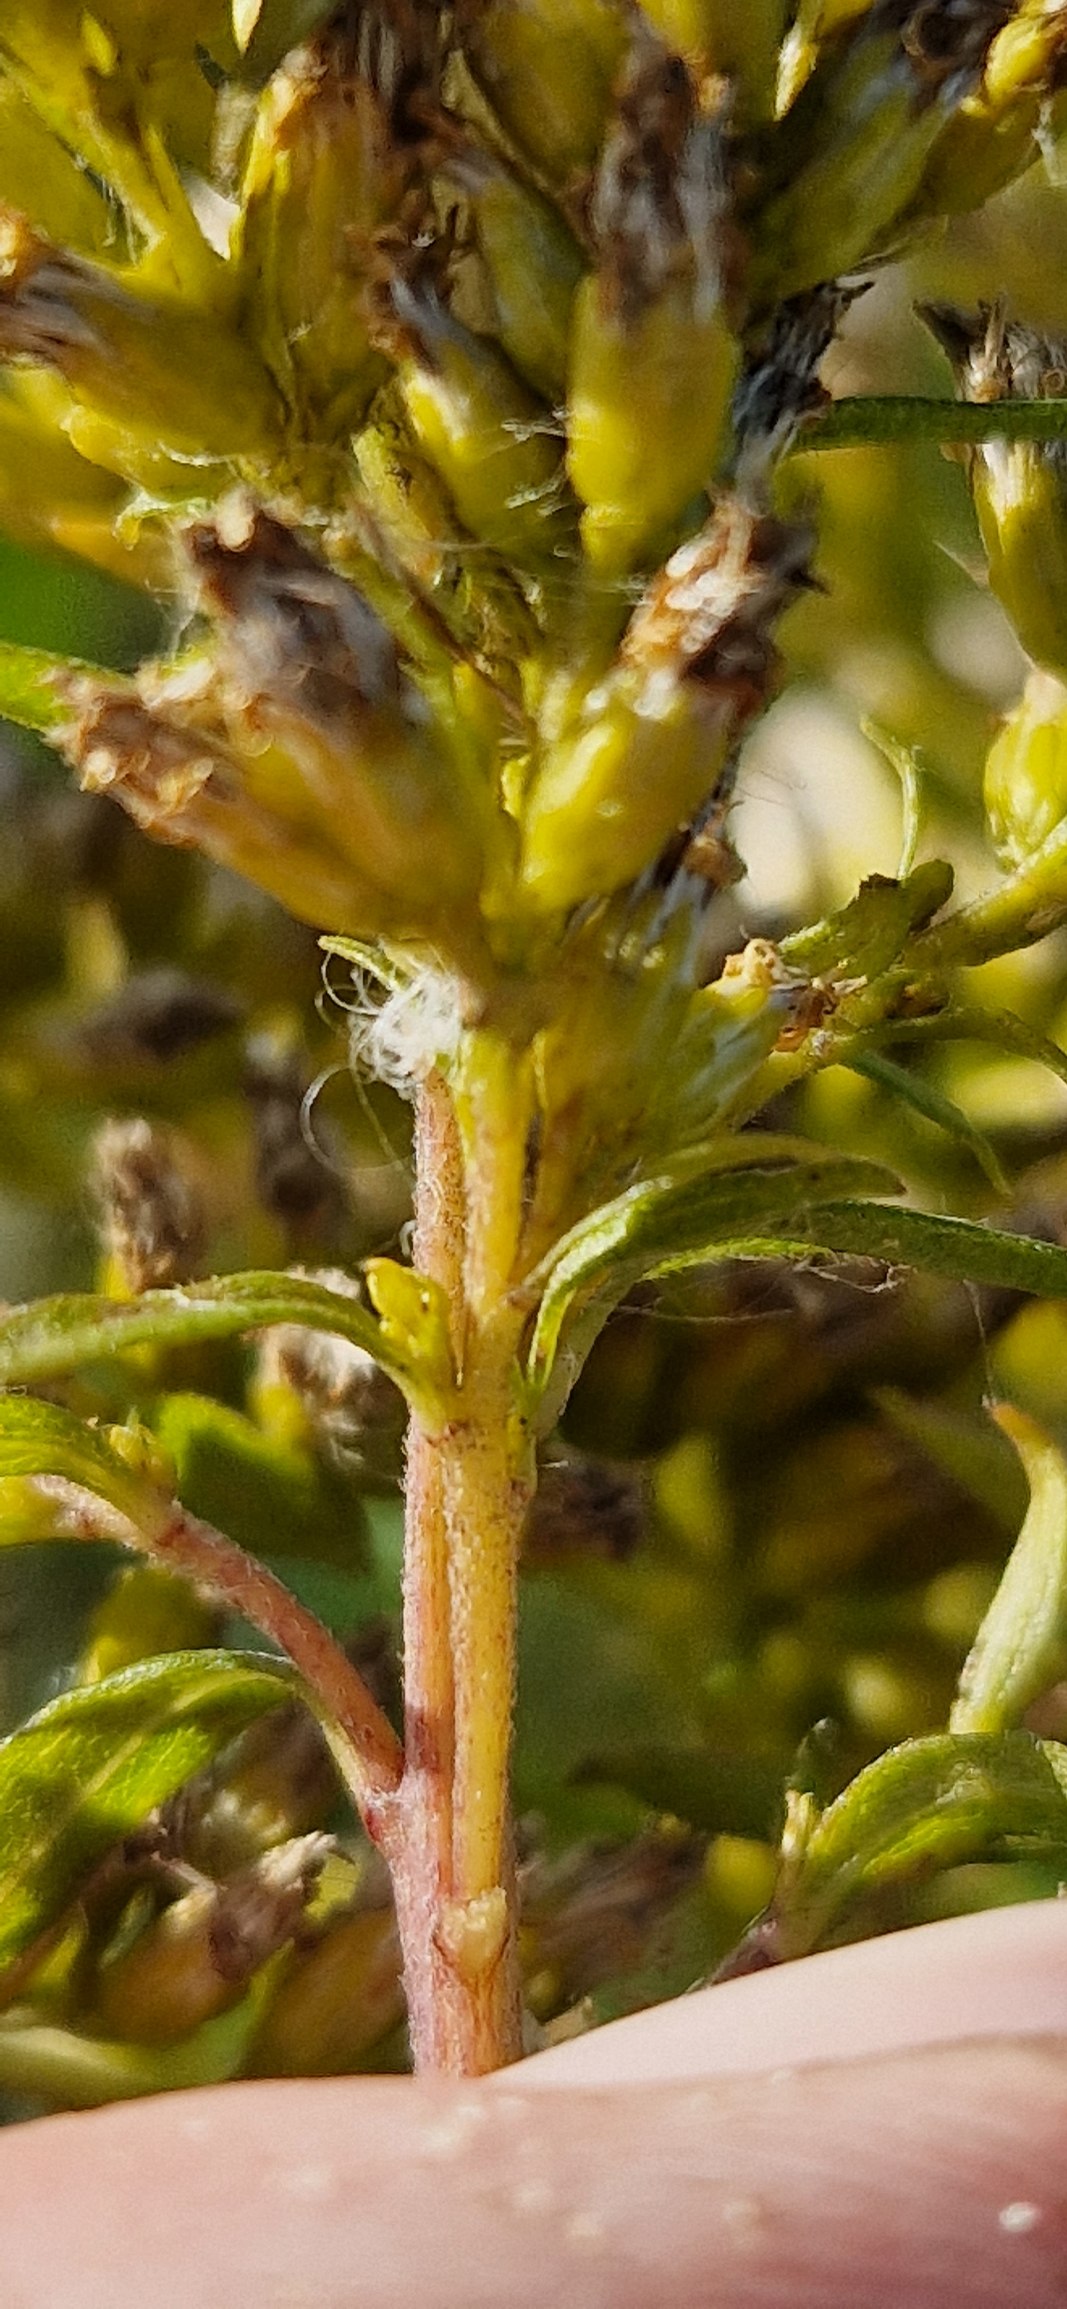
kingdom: Plantae
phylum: Tracheophyta
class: Magnoliopsida
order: Asterales
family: Asteraceae
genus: Solidago
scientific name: Solidago canadensis
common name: Kanadisk gyldenris
